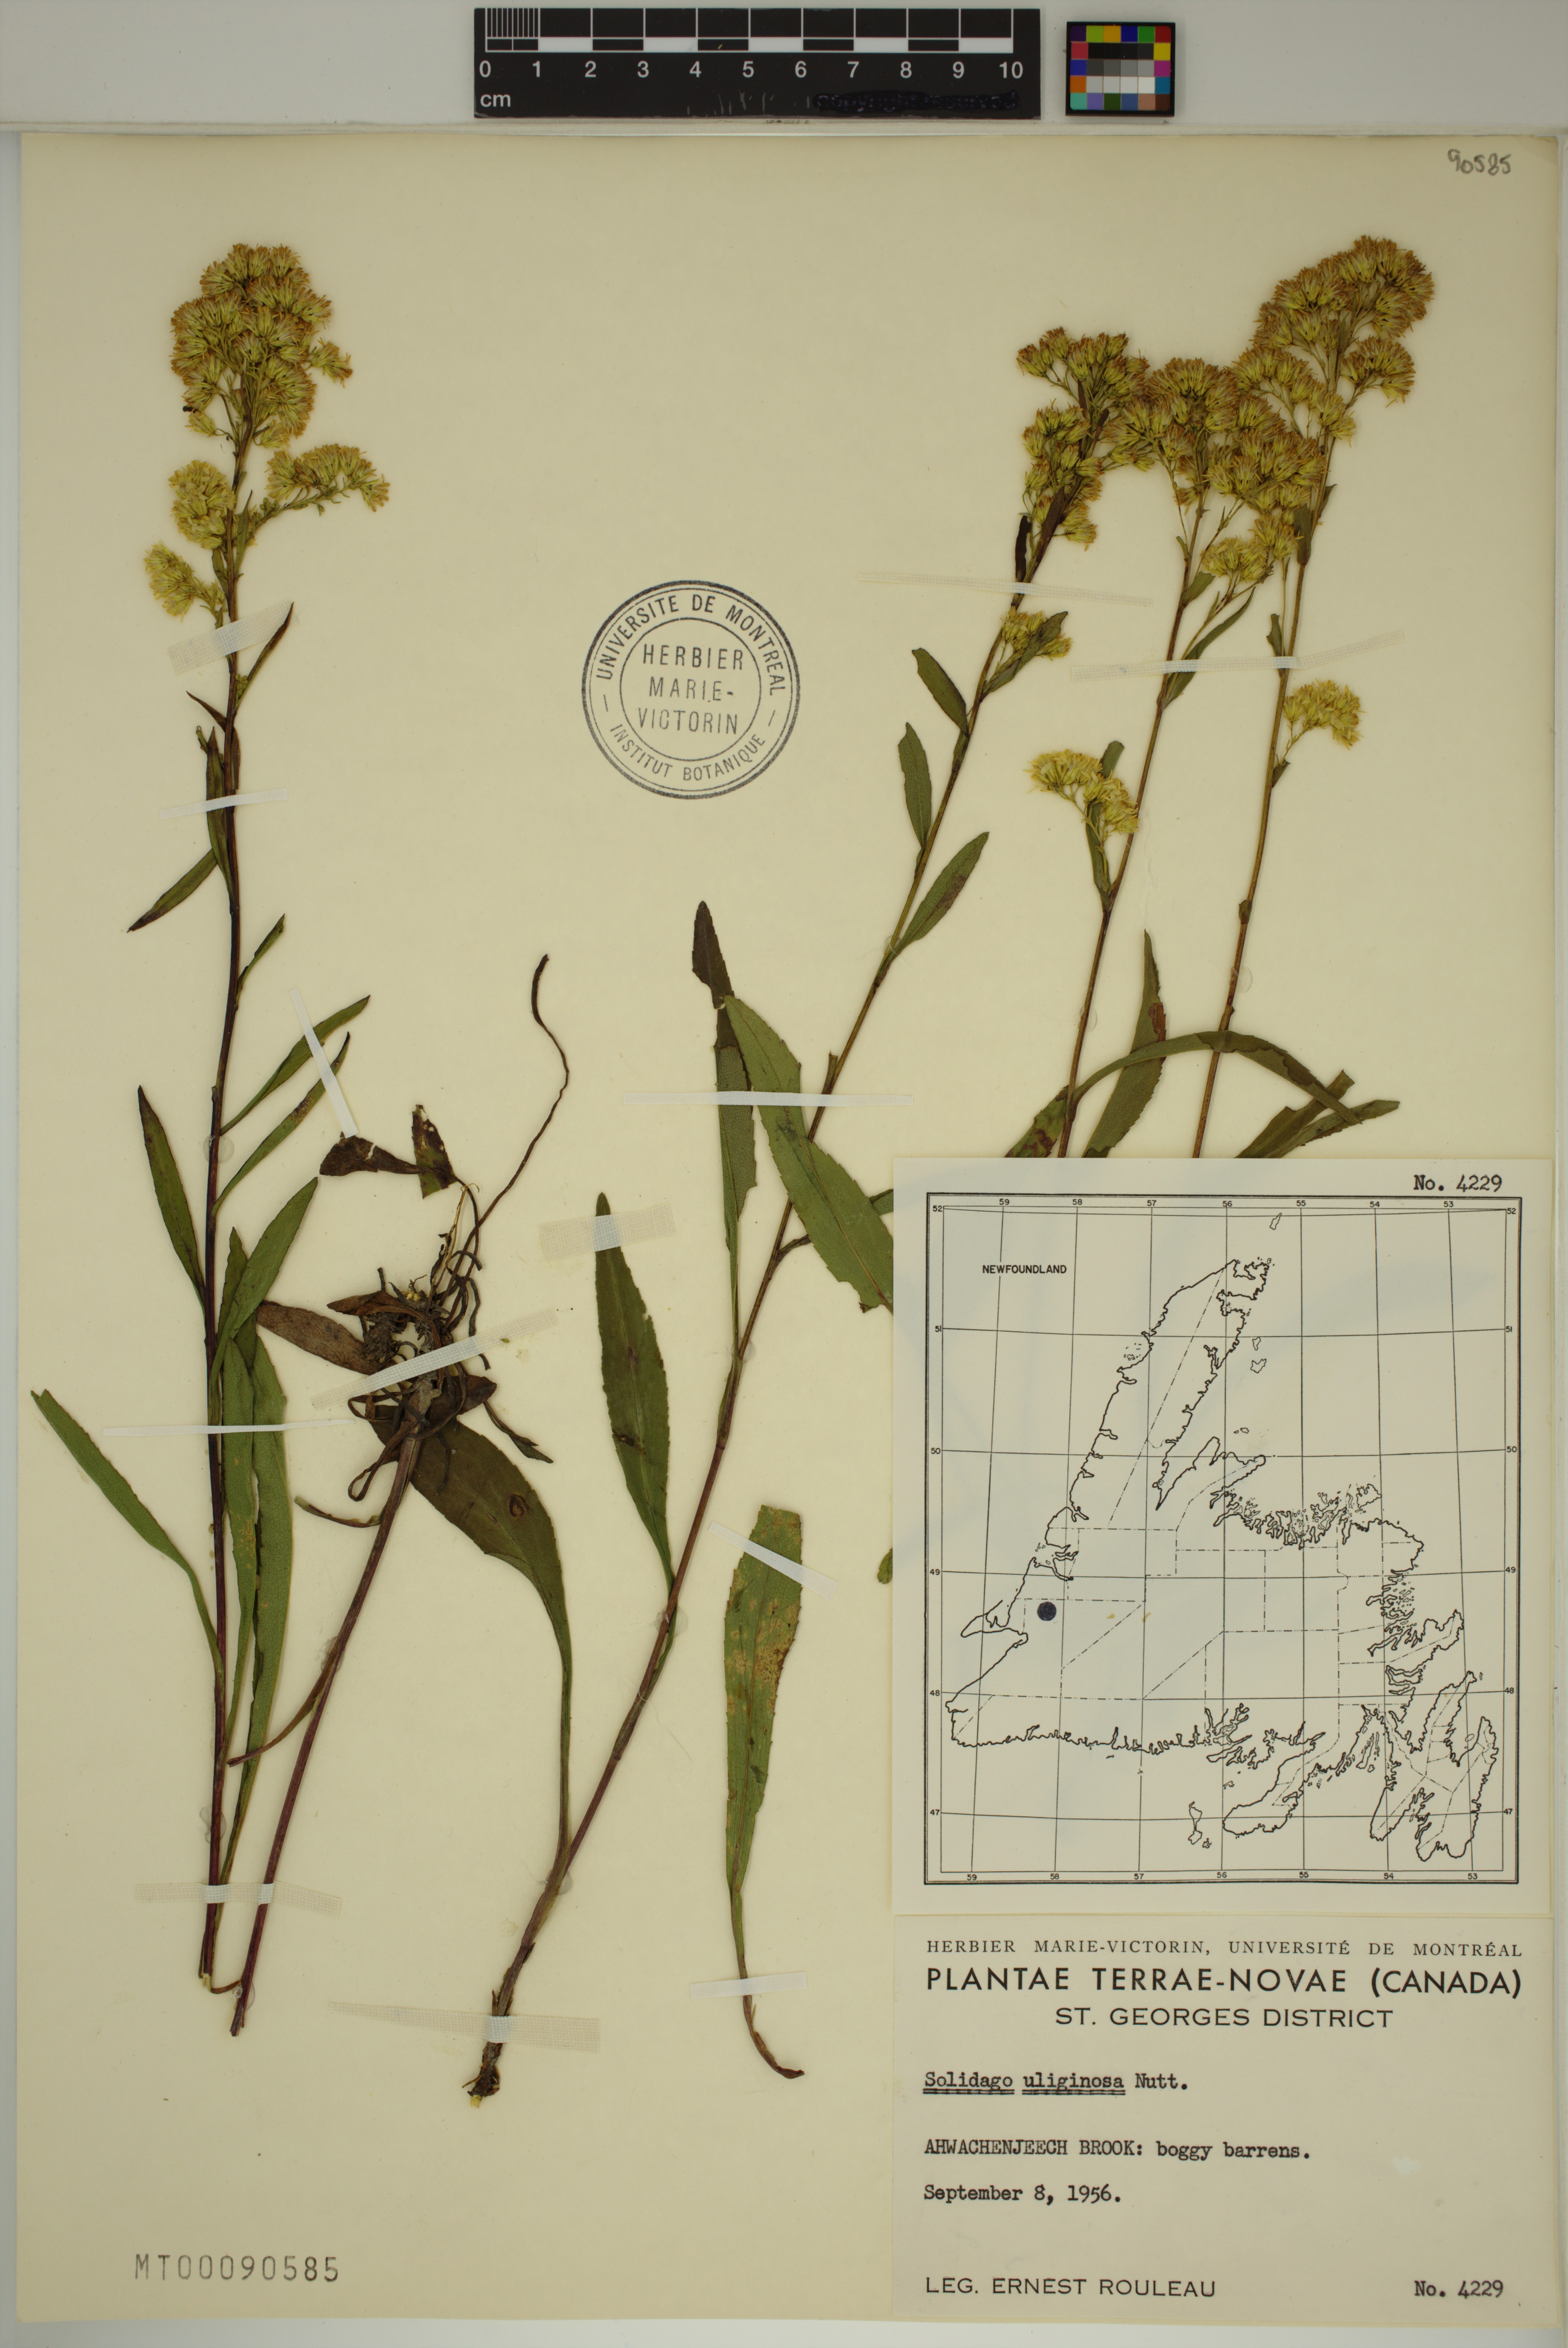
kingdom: Plantae
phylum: Tracheophyta
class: Magnoliopsida
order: Asterales
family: Asteraceae
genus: Solidago
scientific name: Solidago uliginosa
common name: Bog goldenrod
